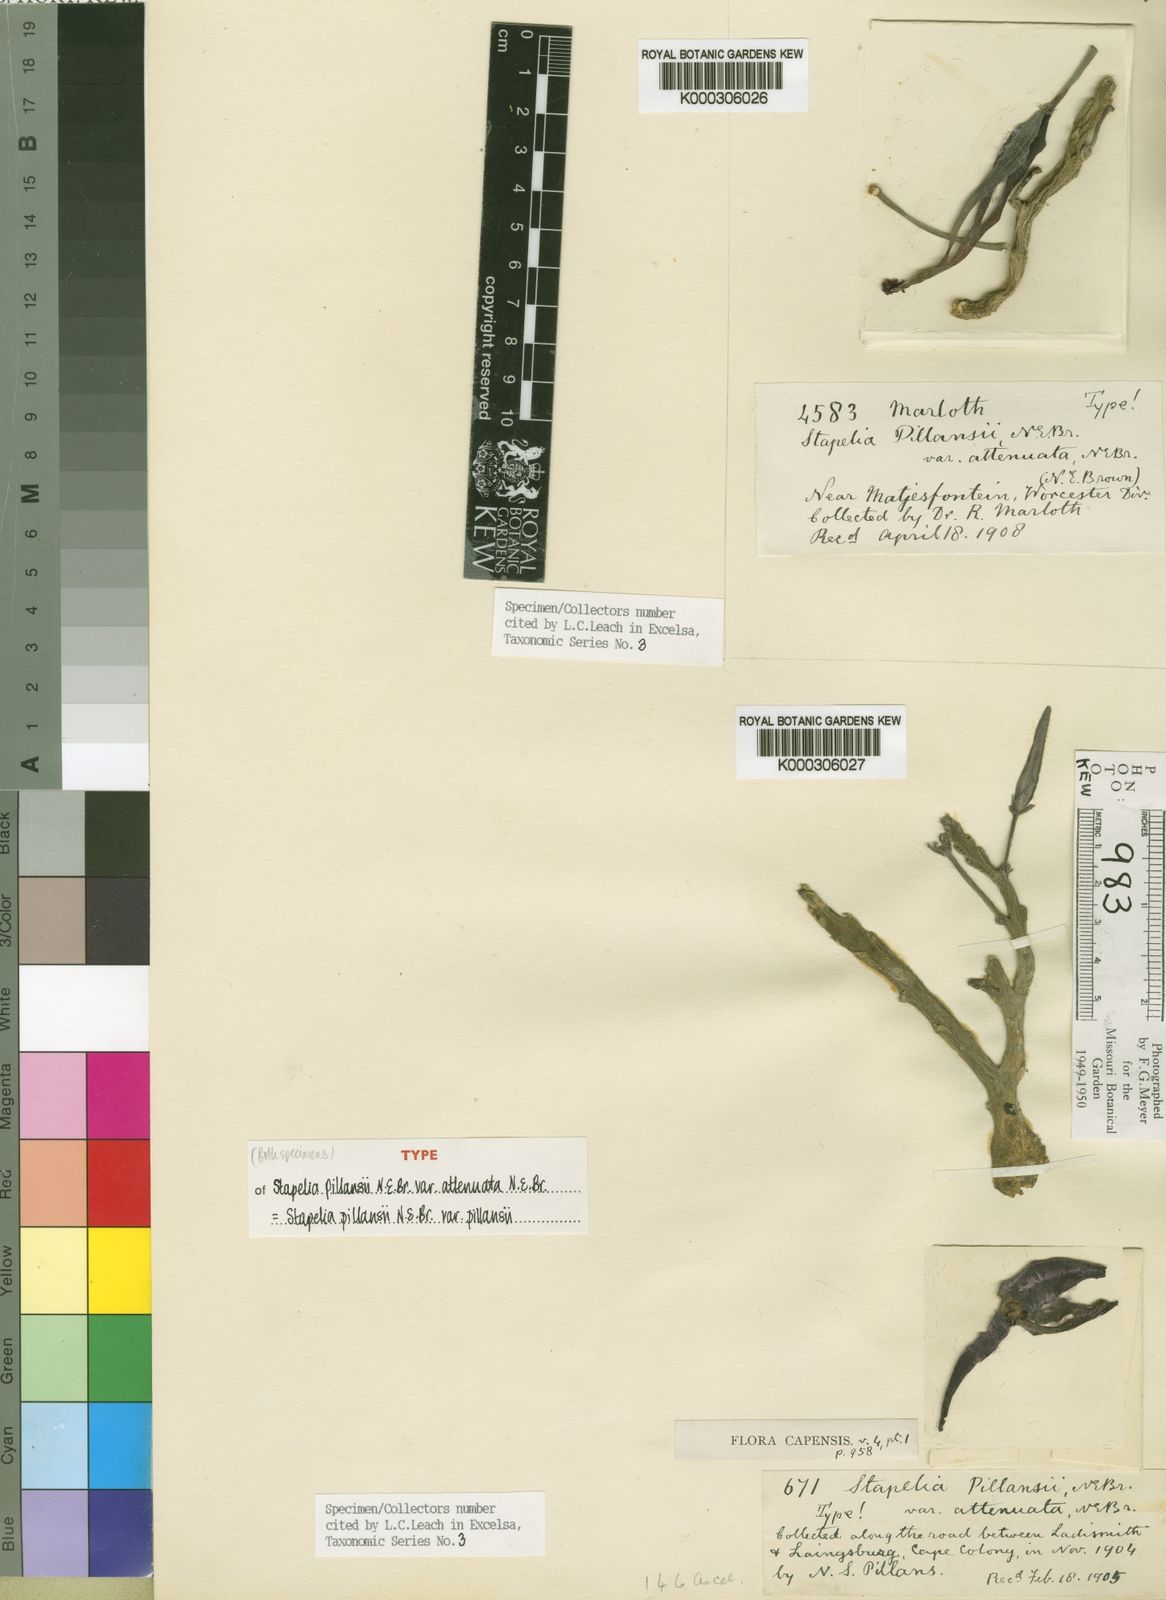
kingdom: Plantae
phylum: Tracheophyta
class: Magnoliopsida
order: Gentianales
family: Apocynaceae
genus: Ceropegia
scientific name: Ceropegia nevillepillansii
